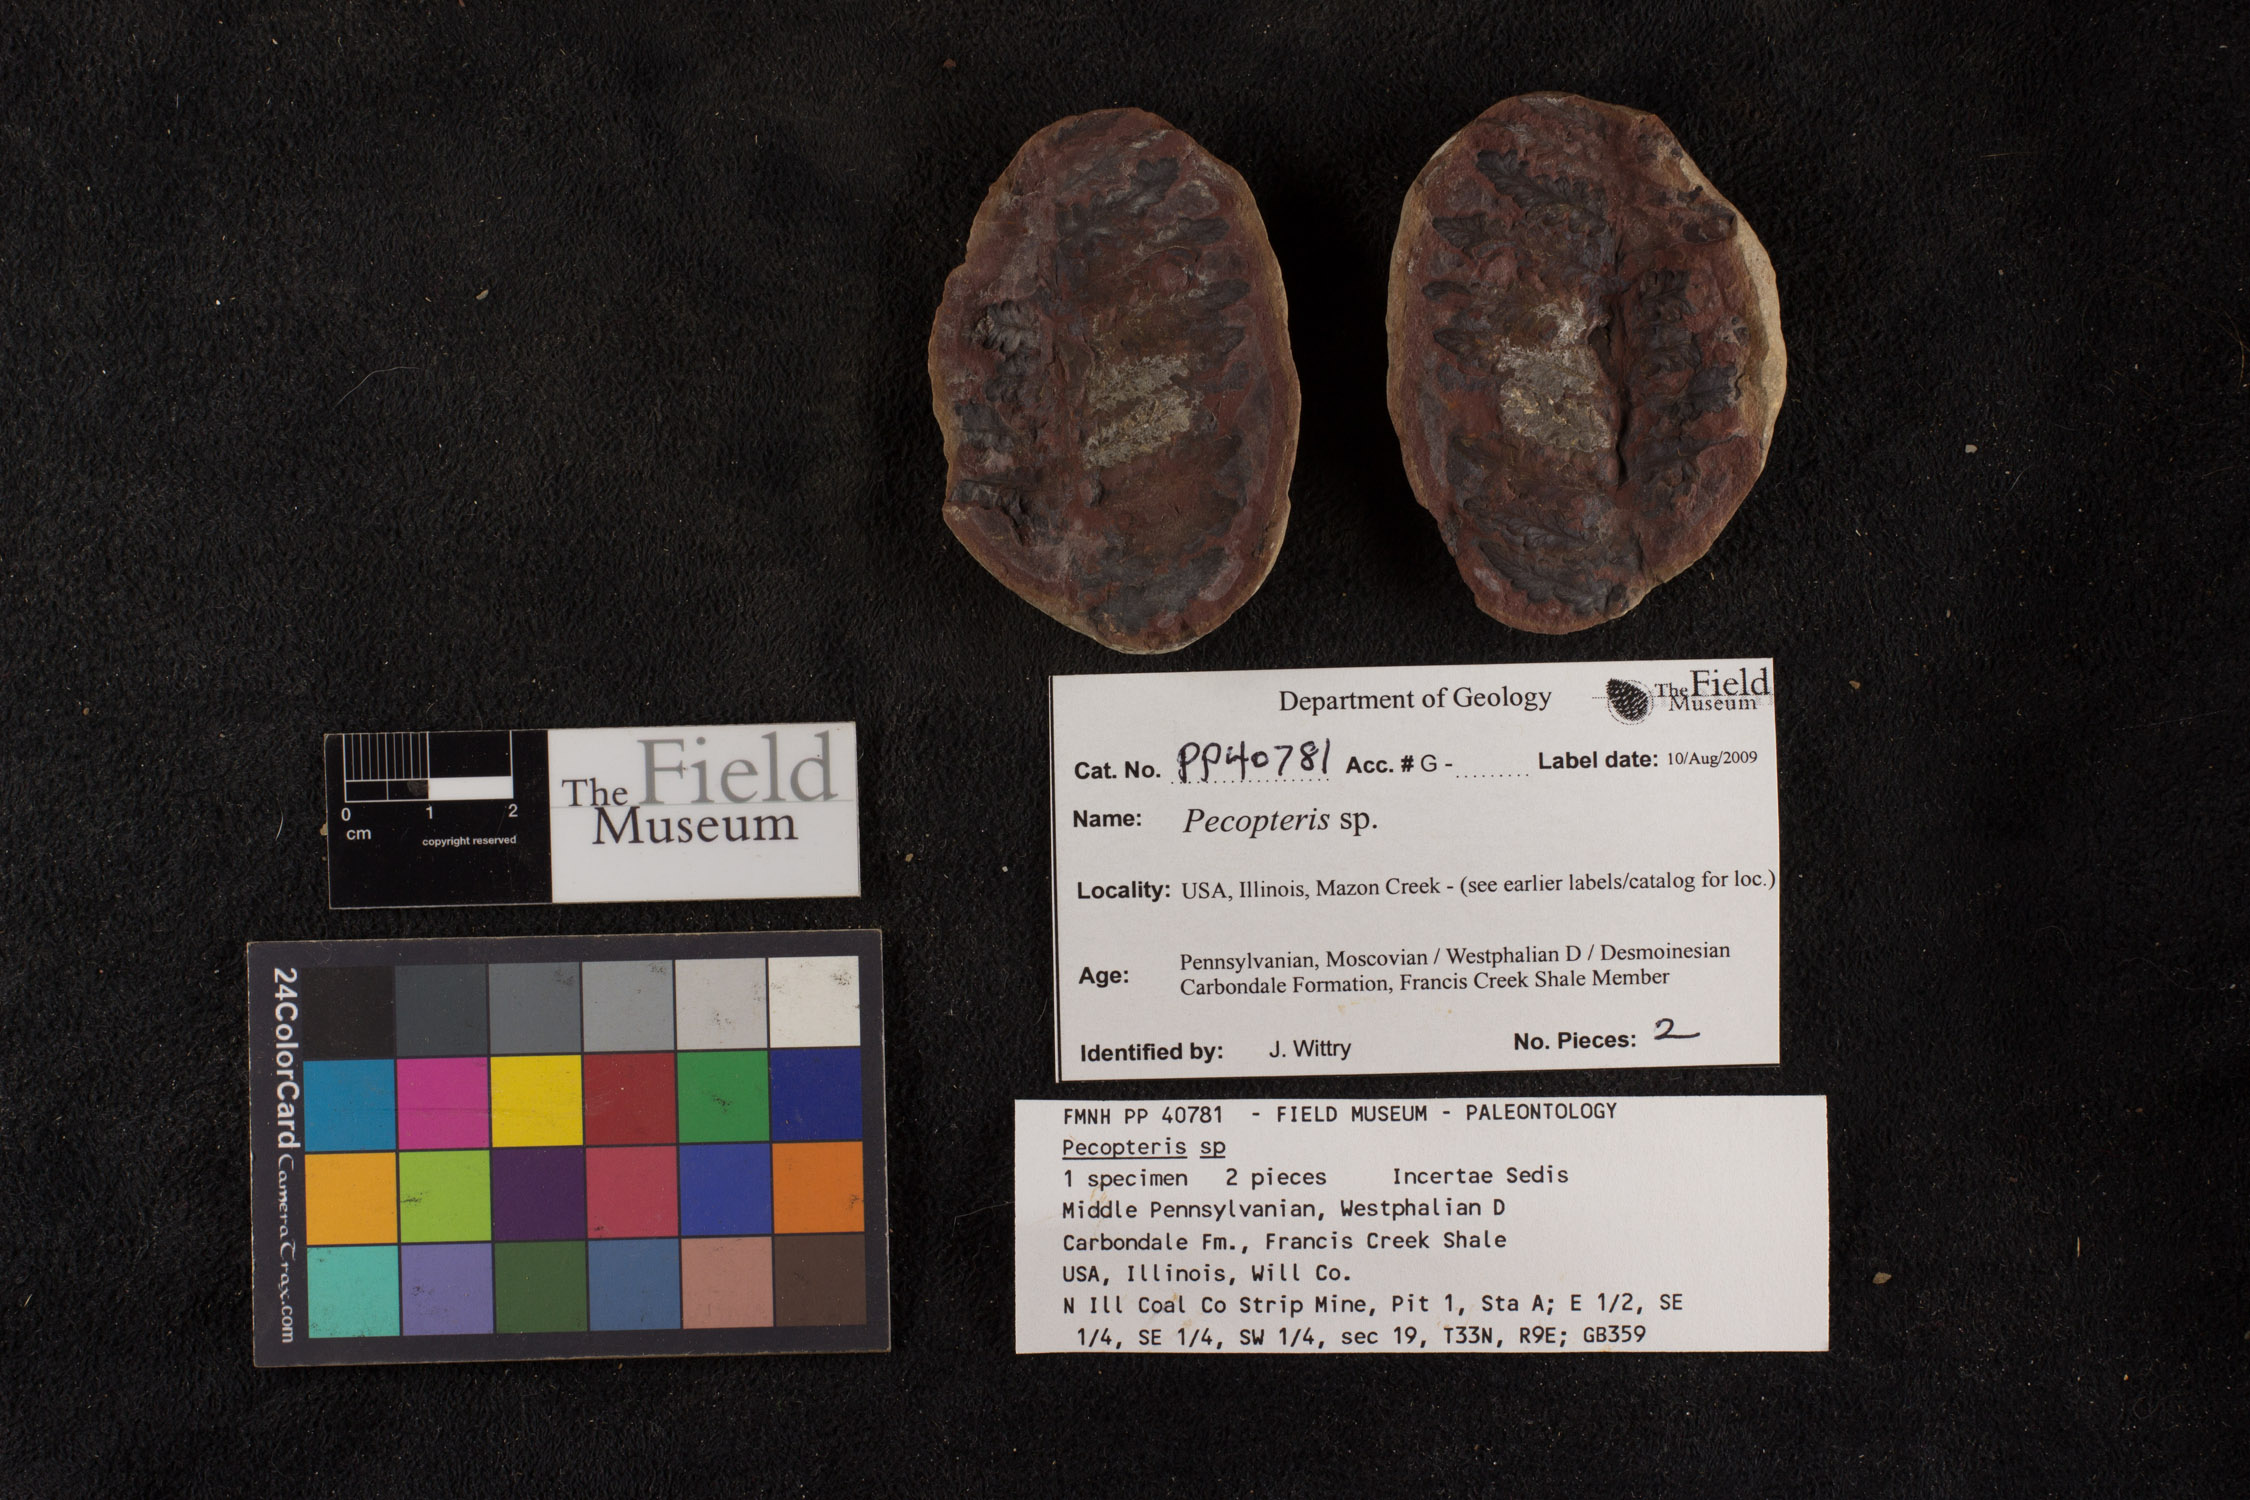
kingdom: Plantae
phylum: Tracheophyta
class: Polypodiopsida
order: Marattiales
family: Asterothecaceae
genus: Pecopteris
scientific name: Pecopteris
